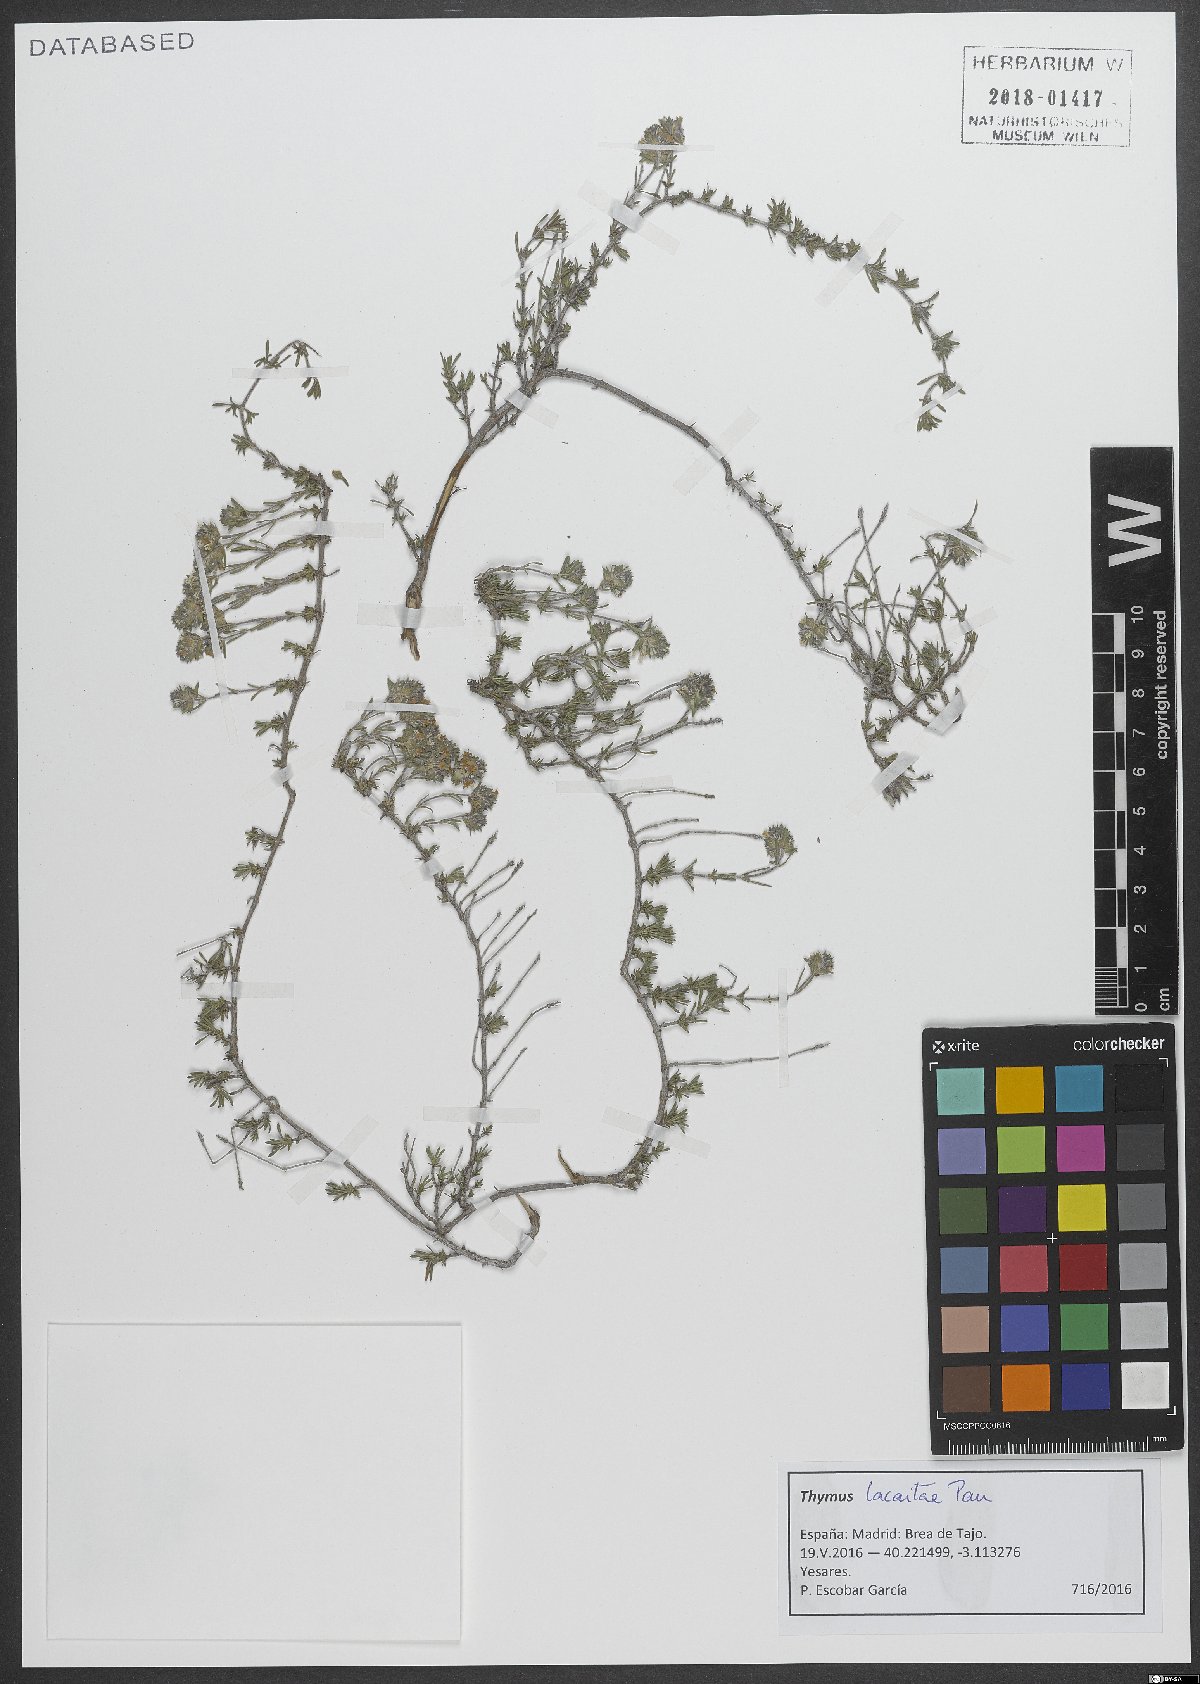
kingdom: Plantae
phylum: Tracheophyta
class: Magnoliopsida
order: Lamiales
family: Lamiaceae
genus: Thymus
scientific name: Thymus lacaitae
